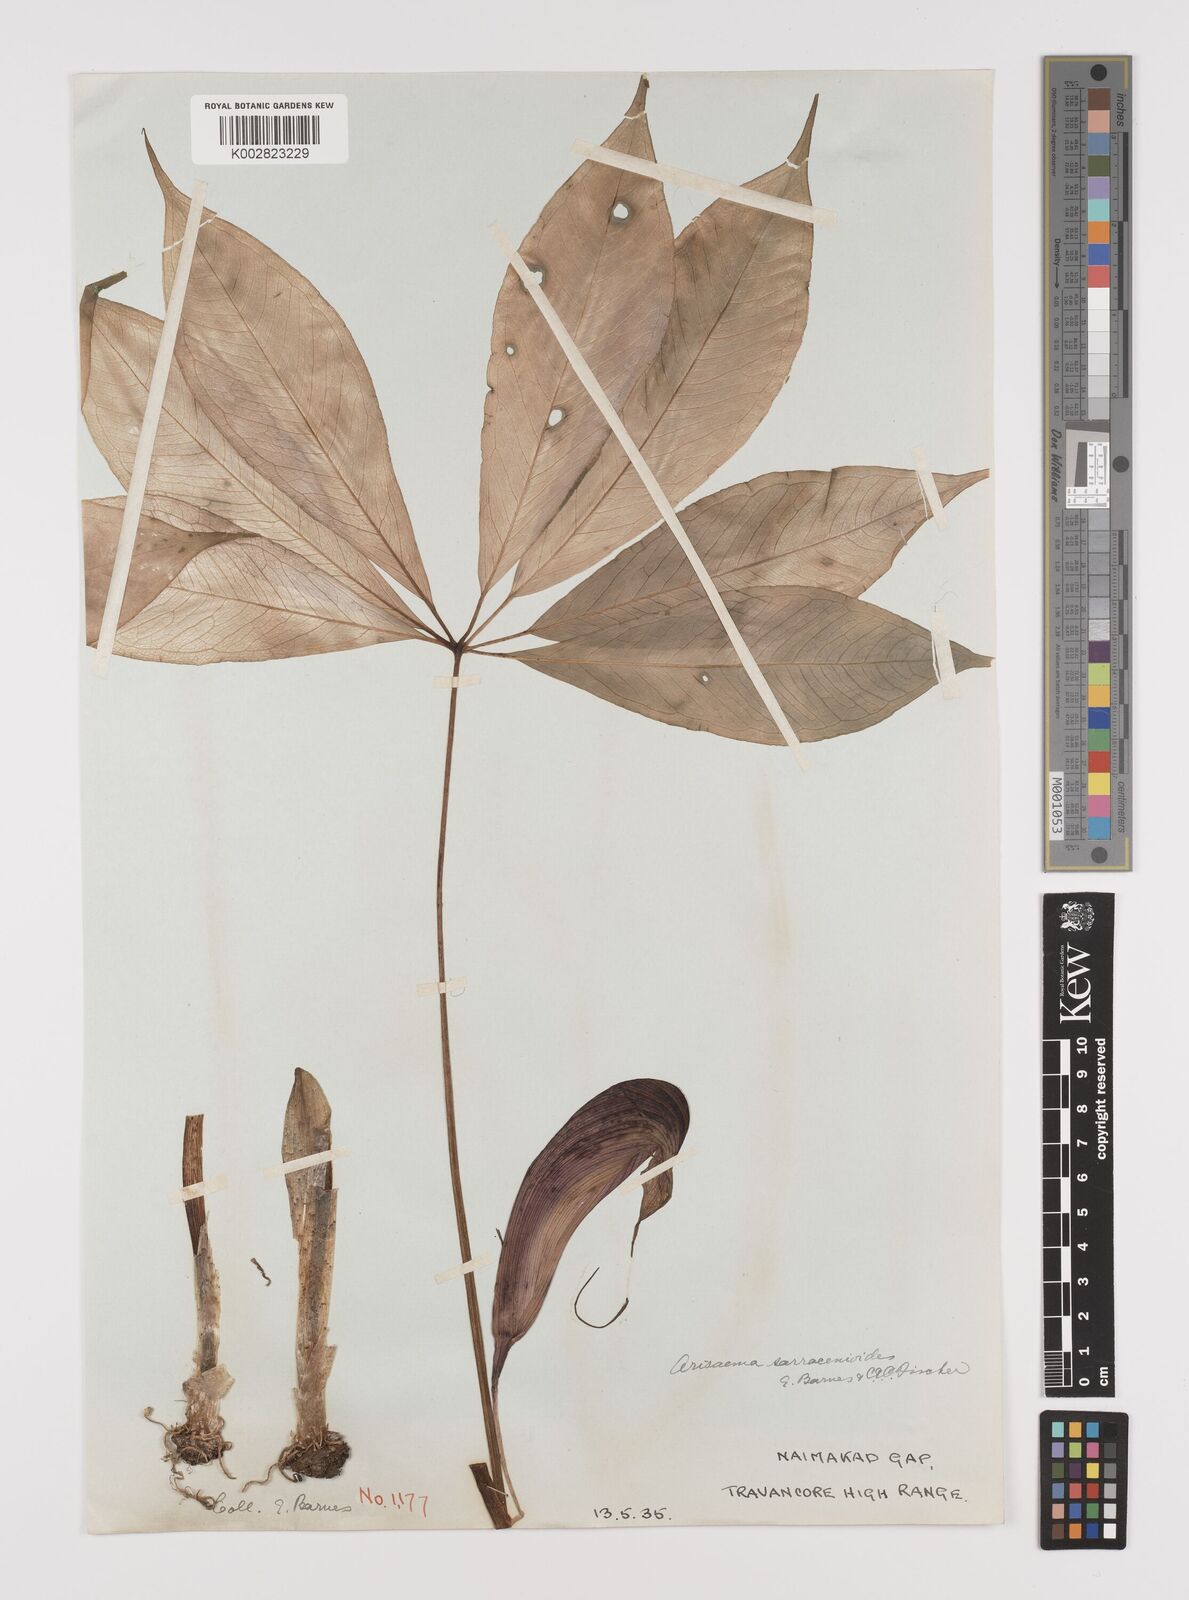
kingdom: Plantae
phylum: Tracheophyta
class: Liliopsida
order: Alismatales
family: Araceae
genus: Arisaema
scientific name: Arisaema sarracenioides
